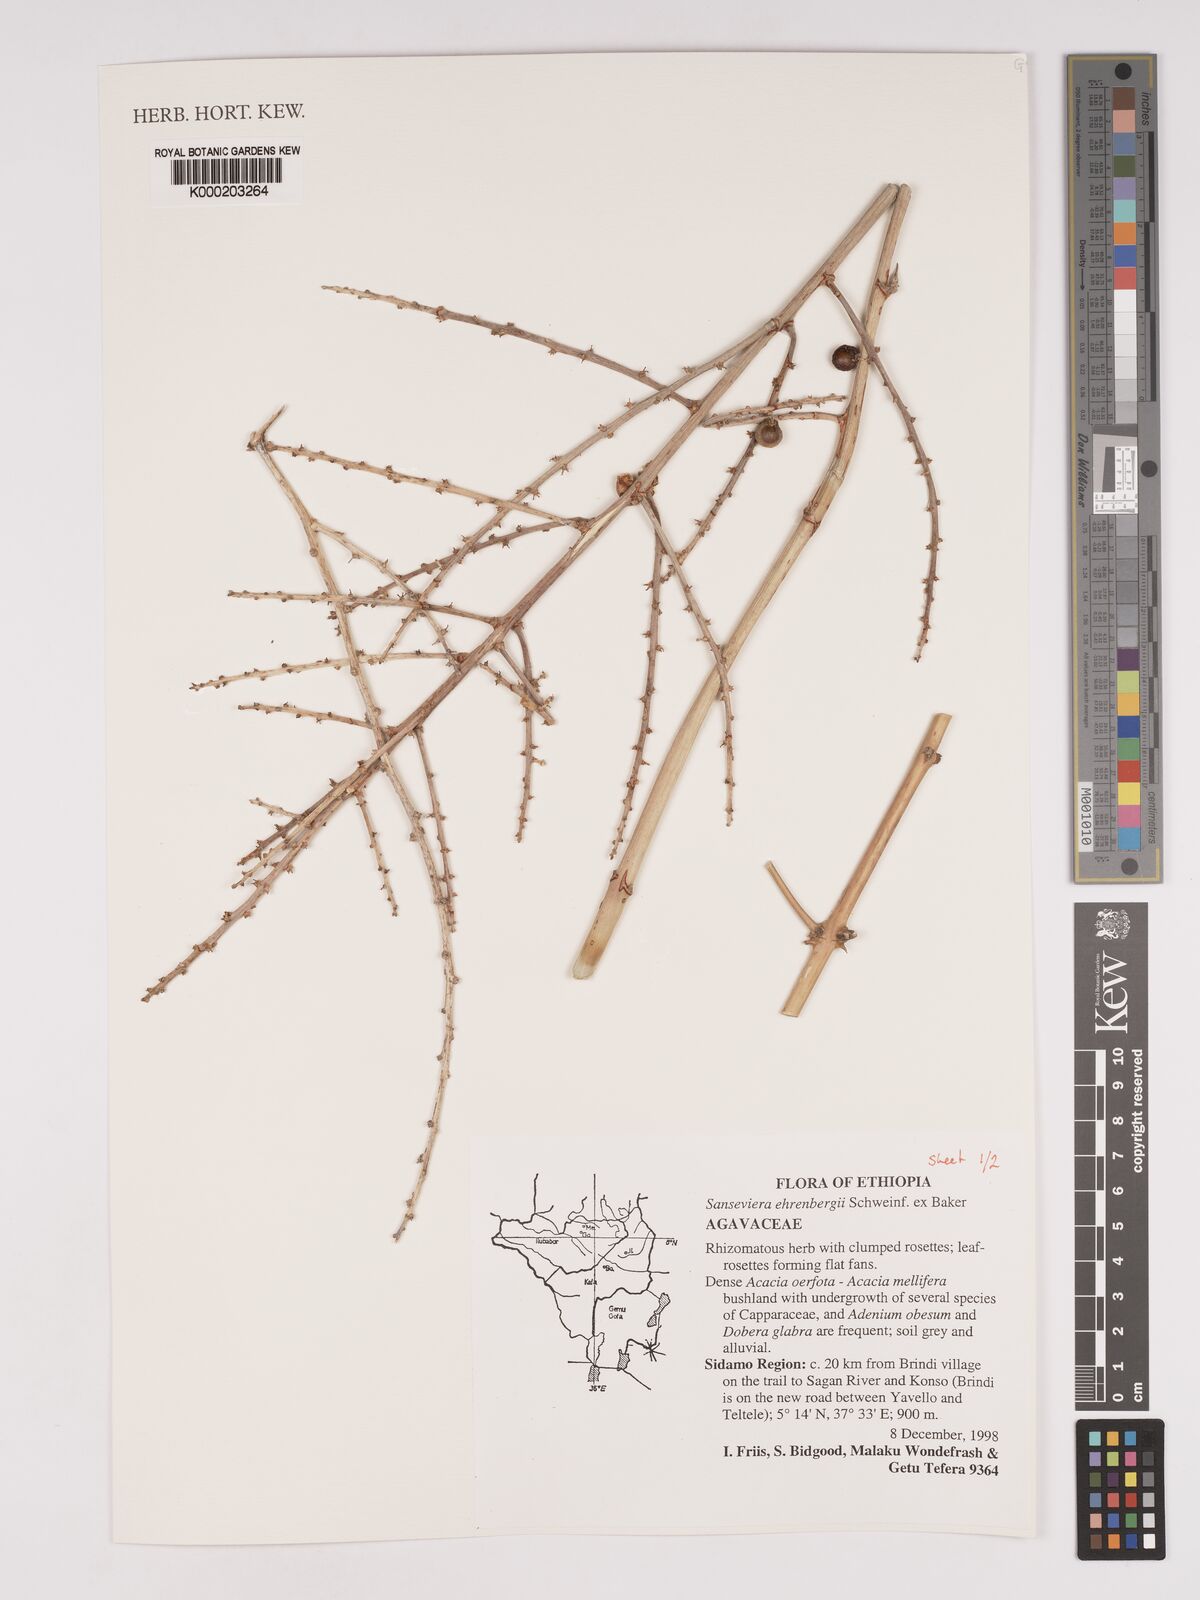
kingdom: Plantae
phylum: Tracheophyta
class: Liliopsida
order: Asparagales
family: Asparagaceae
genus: Dracaena
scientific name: Dracaena hanningtonii
